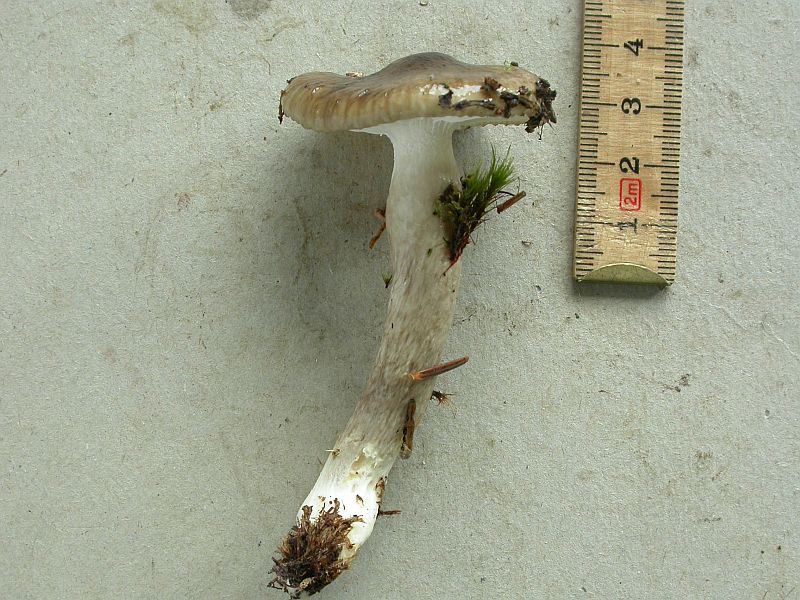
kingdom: Fungi
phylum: Basidiomycota
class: Agaricomycetes
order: Agaricales
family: Hygrophoraceae
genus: Hygrophorus
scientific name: Hygrophorus olivaceoalbus
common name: hvidbrun sneglehat
